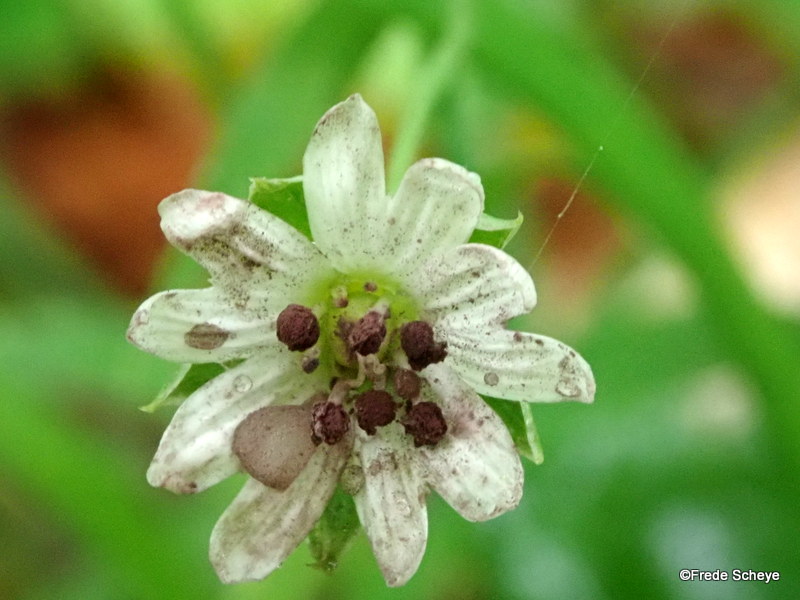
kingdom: Fungi
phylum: Basidiomycota
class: Microbotryomycetes
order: Microbotryales
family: Microbotryaceae
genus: Microbotryum
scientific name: Microbotryum stellariae
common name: fladstjerne-støvbladrust
